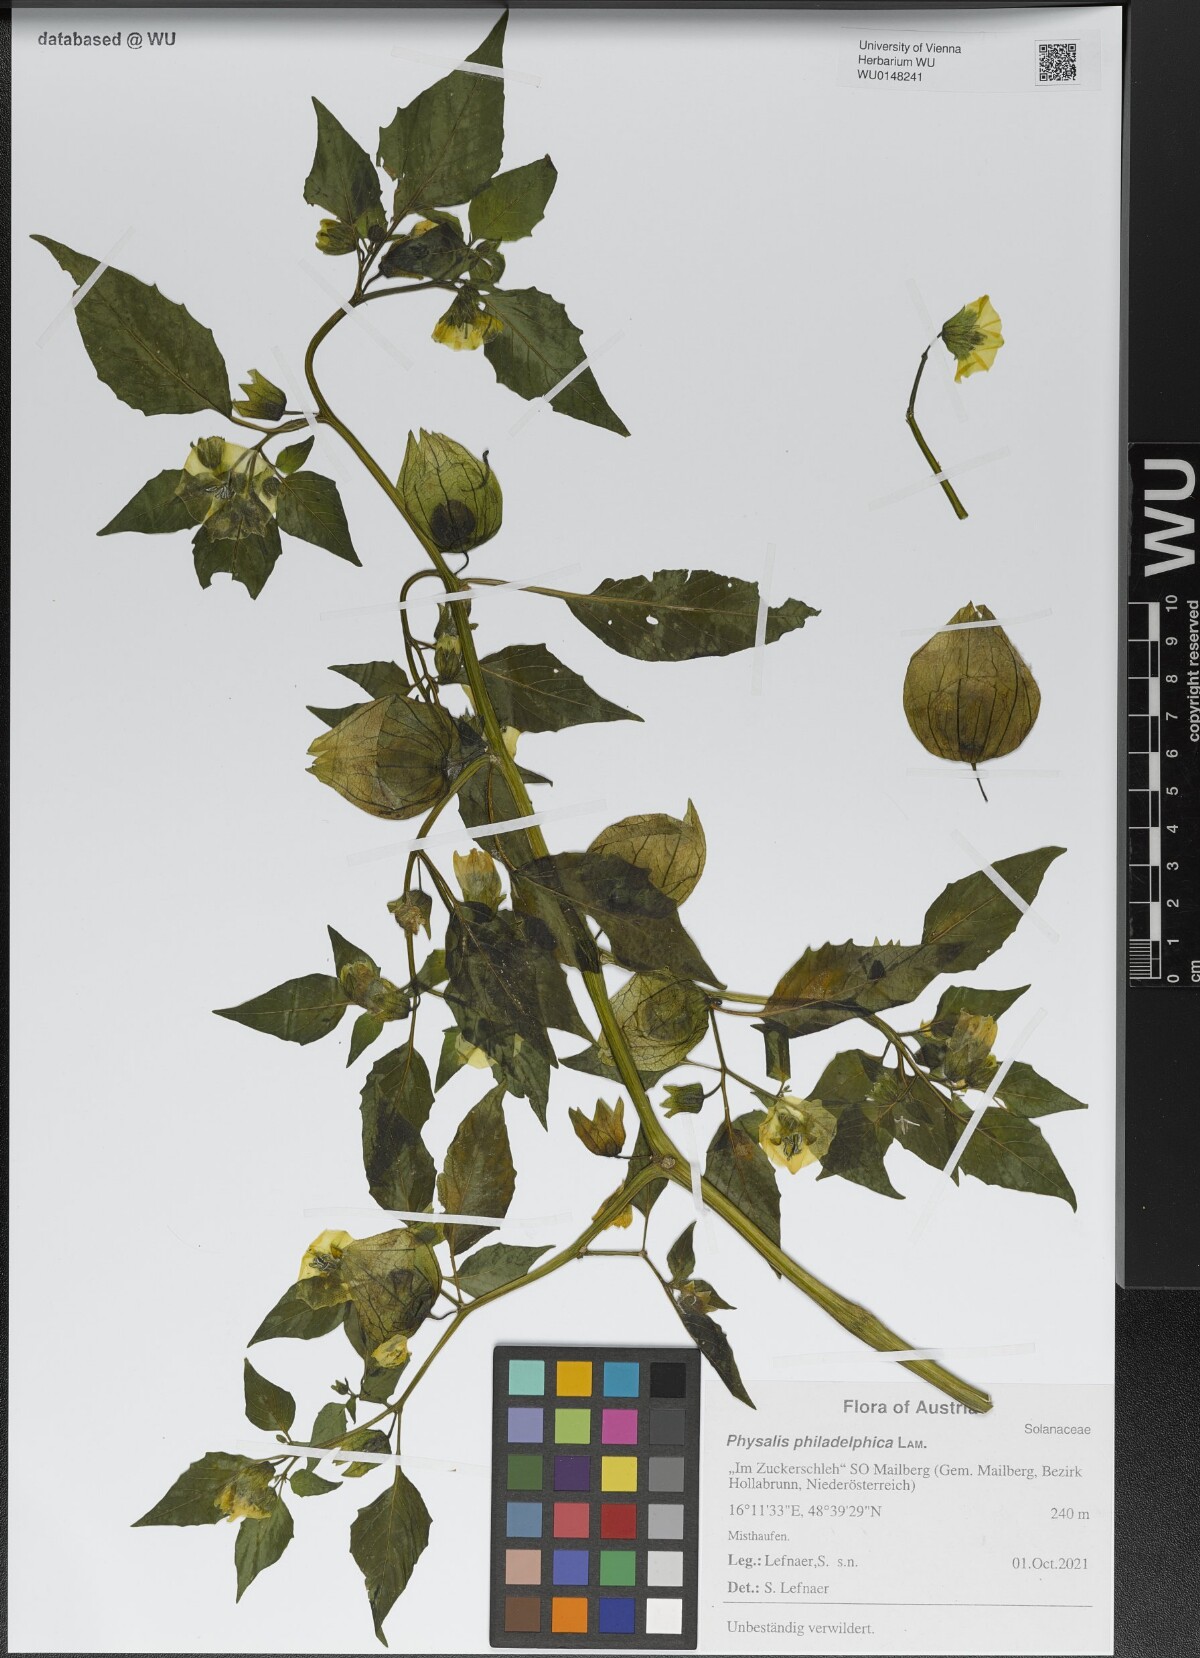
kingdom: Plantae
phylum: Tracheophyta
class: Magnoliopsida
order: Solanales
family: Solanaceae
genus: Physalis
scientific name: Physalis philadelphica
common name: Husk-tomato
